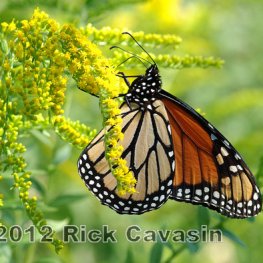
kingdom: Animalia
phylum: Arthropoda
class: Insecta
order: Lepidoptera
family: Nymphalidae
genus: Danaus
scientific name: Danaus plexippus
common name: Monarch
